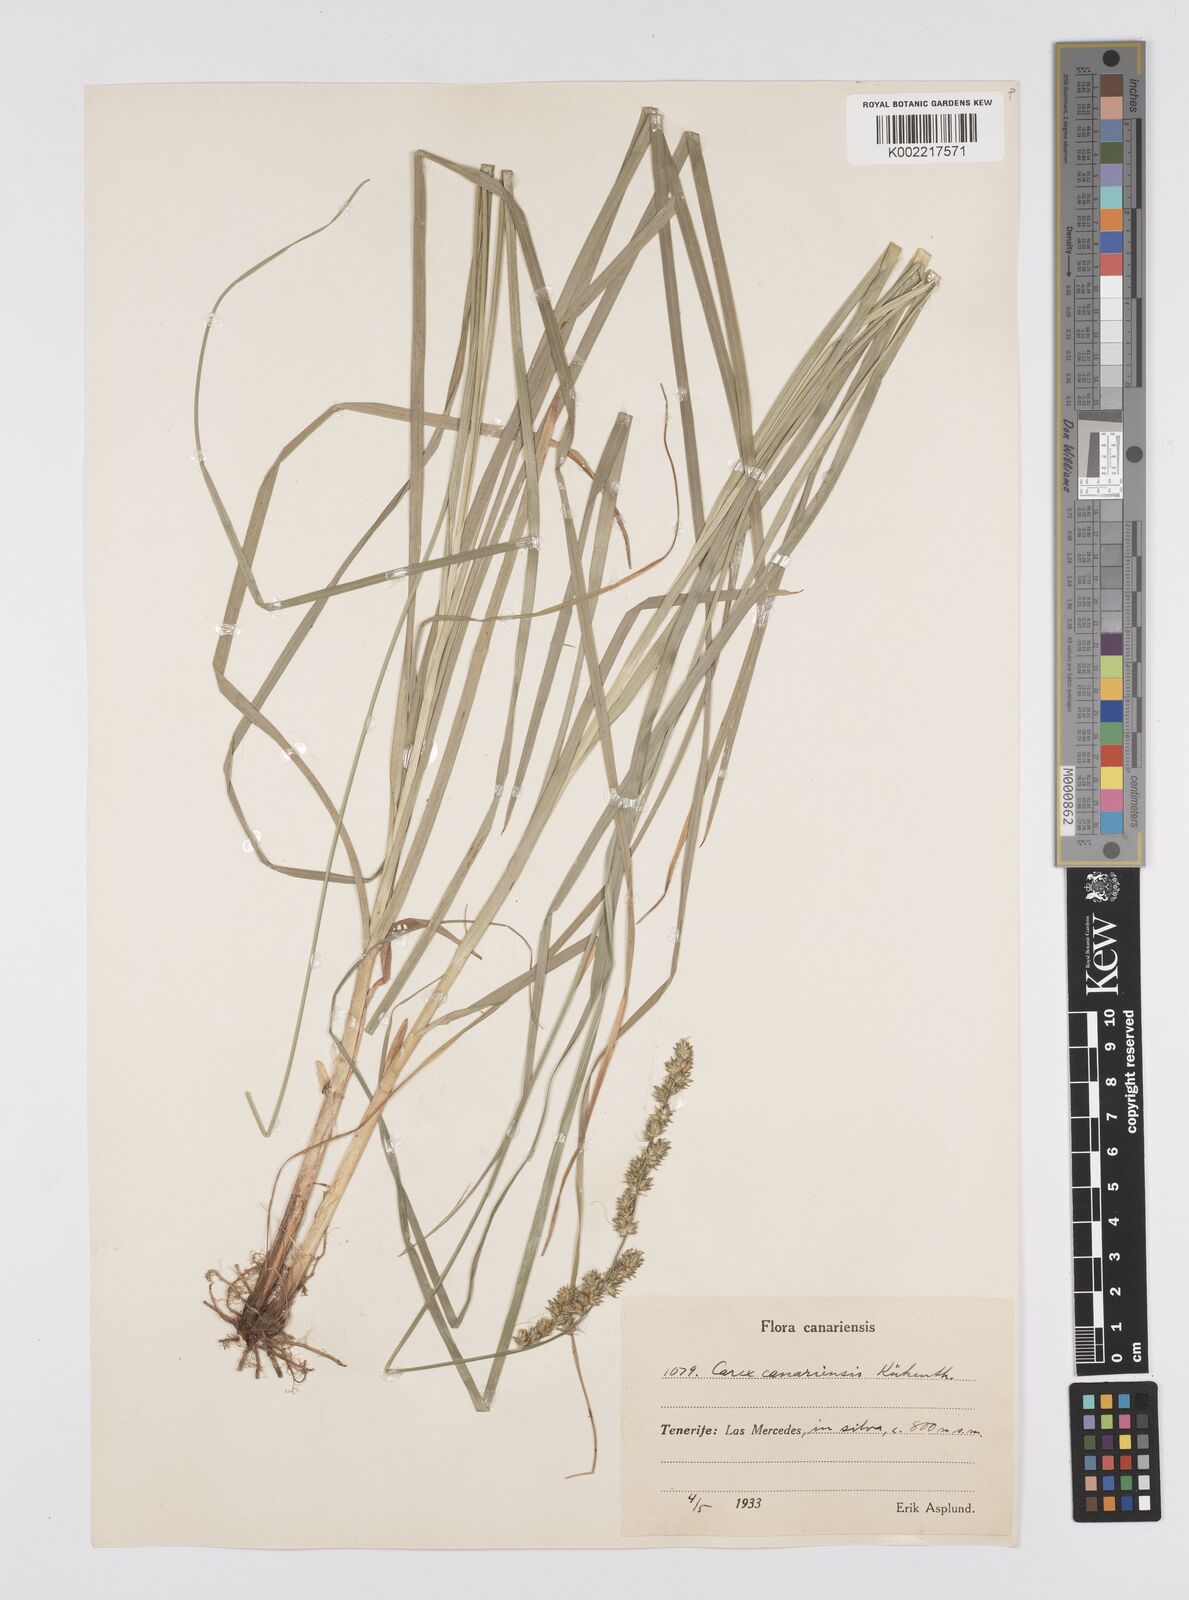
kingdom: Plantae
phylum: Tracheophyta
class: Liliopsida
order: Poales
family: Cyperaceae
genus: Carex
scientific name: Carex canariensis
